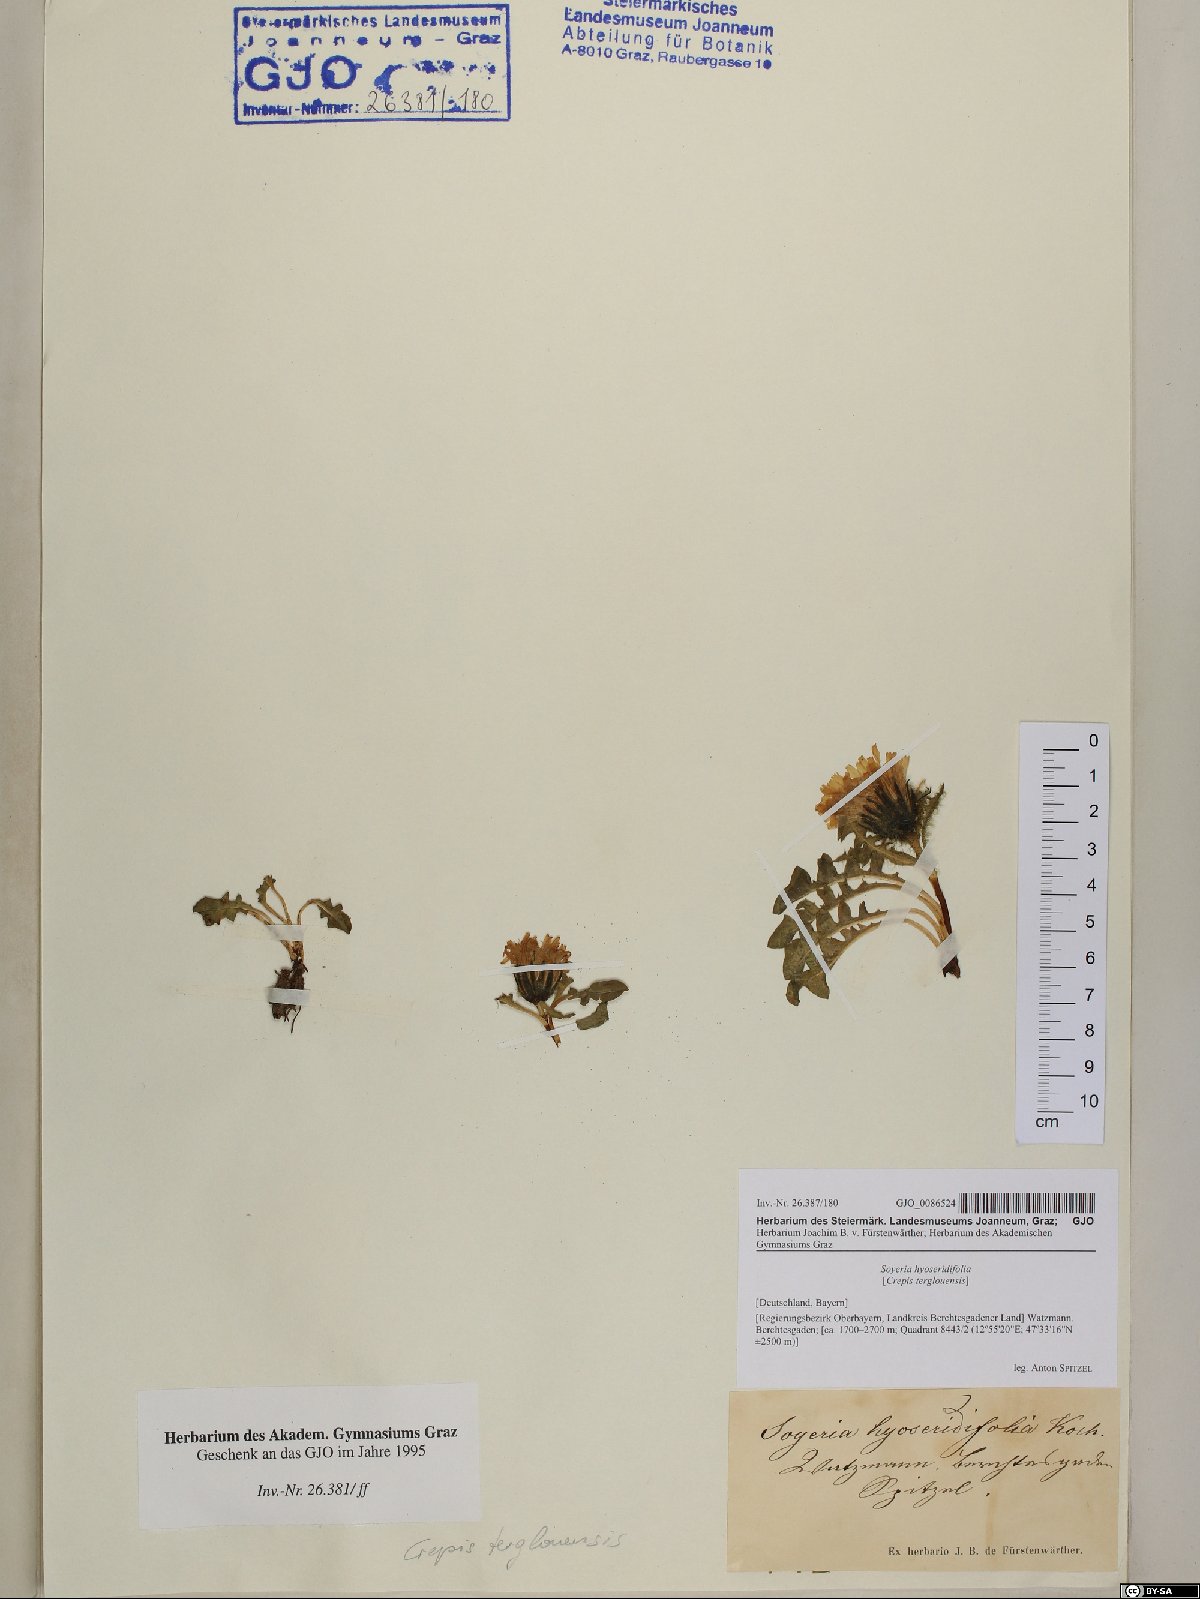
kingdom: Plantae
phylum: Tracheophyta
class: Magnoliopsida
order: Asterales
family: Asteraceae
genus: Crepis
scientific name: Crepis terglouensis
